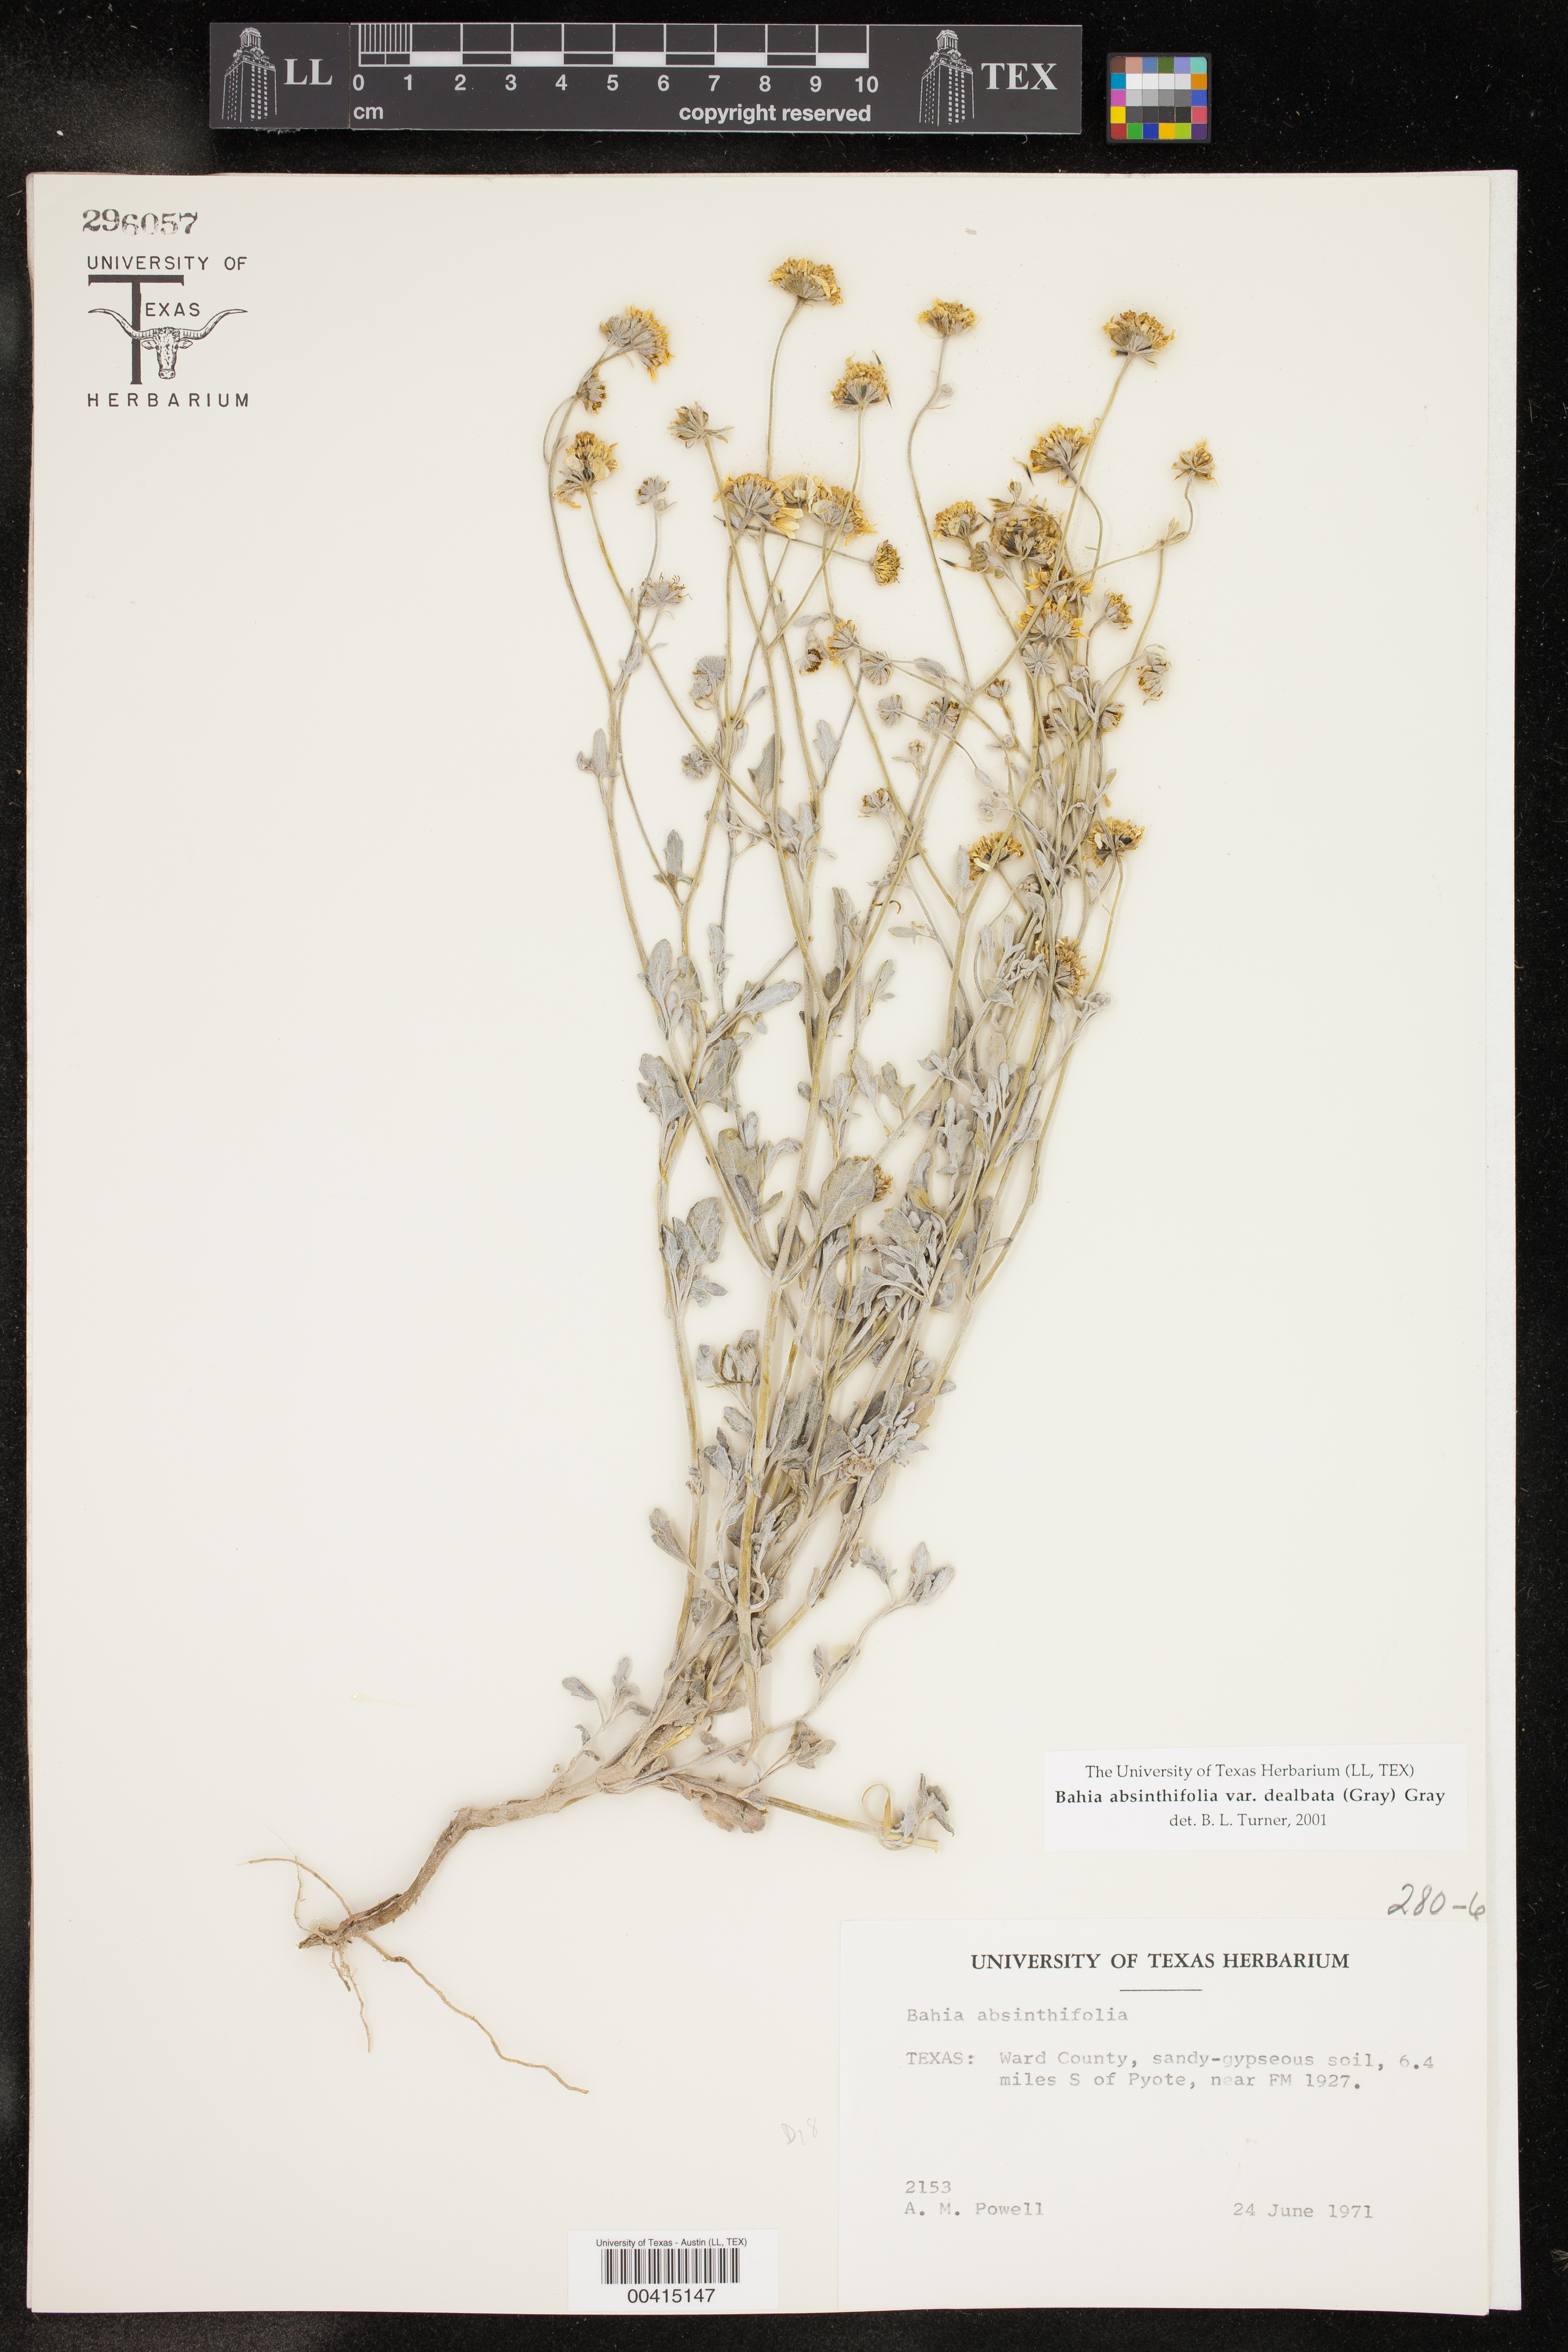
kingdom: Plantae
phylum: Tracheophyta
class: Magnoliopsida
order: Asterales
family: Asteraceae
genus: Picradeniopsis
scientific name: Picradeniopsis absinthifolia
